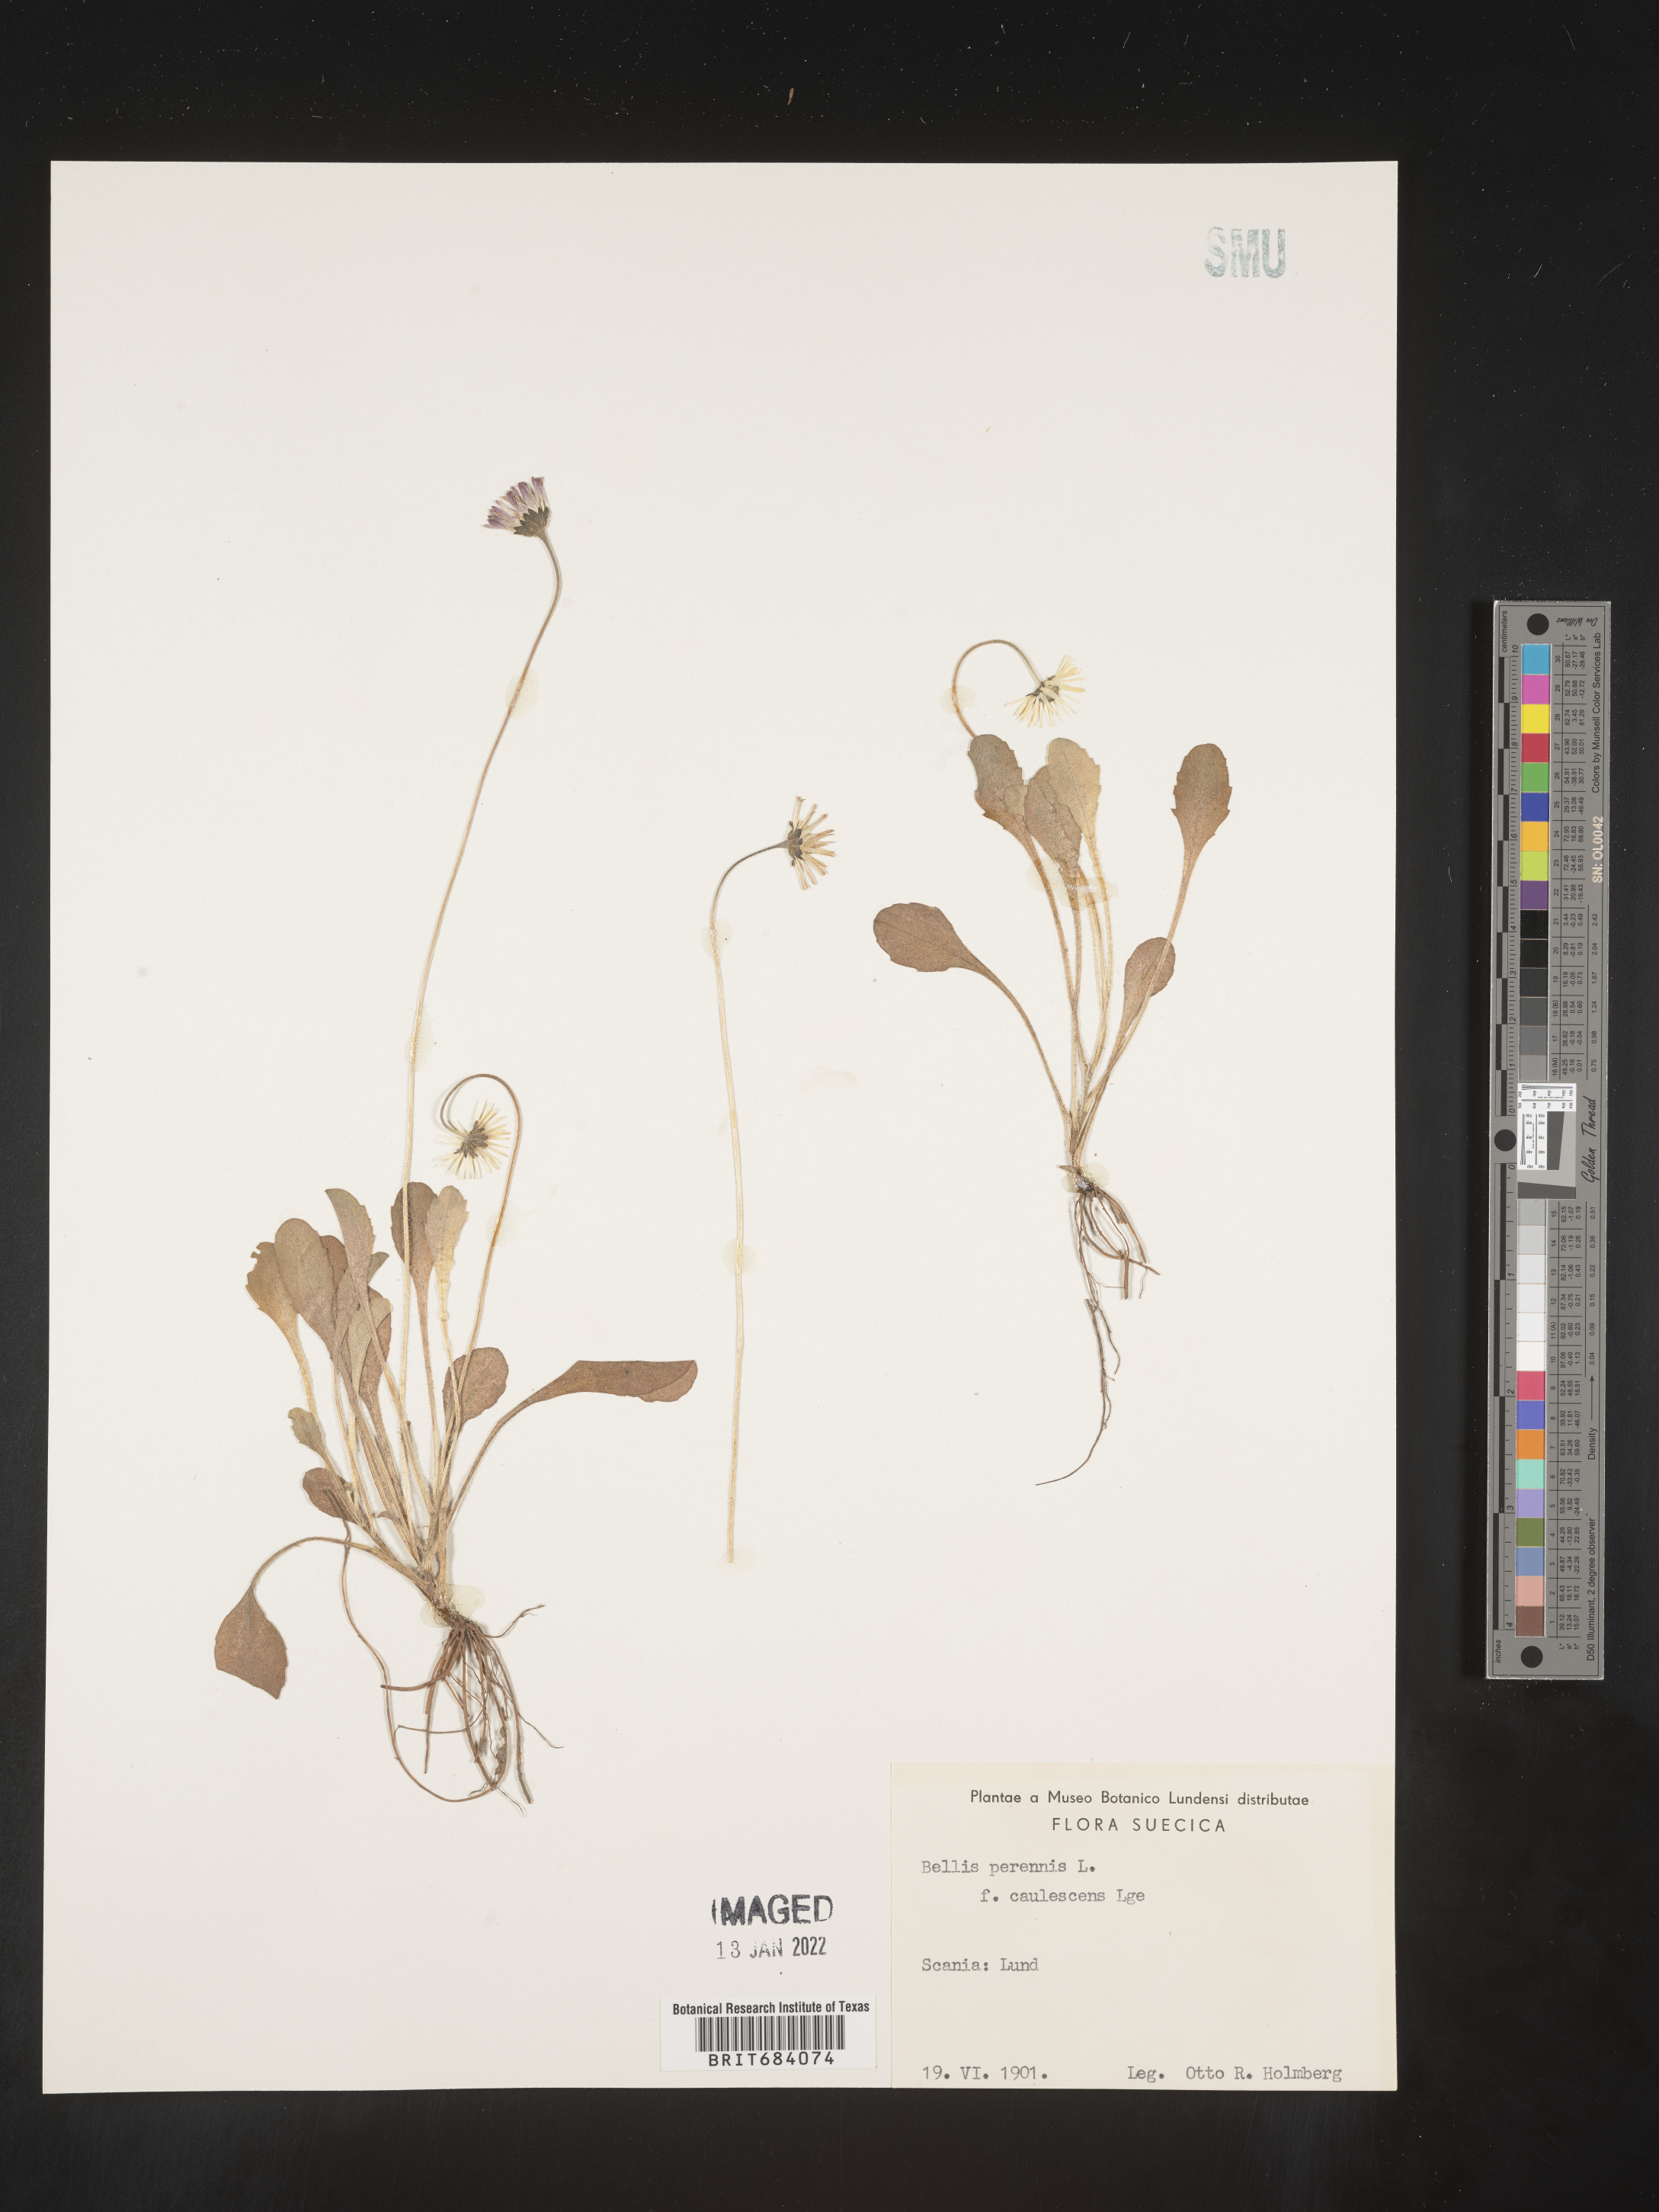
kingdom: Plantae
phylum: Tracheophyta
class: Magnoliopsida
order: Asterales
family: Asteraceae
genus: Bellis
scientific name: Bellis
